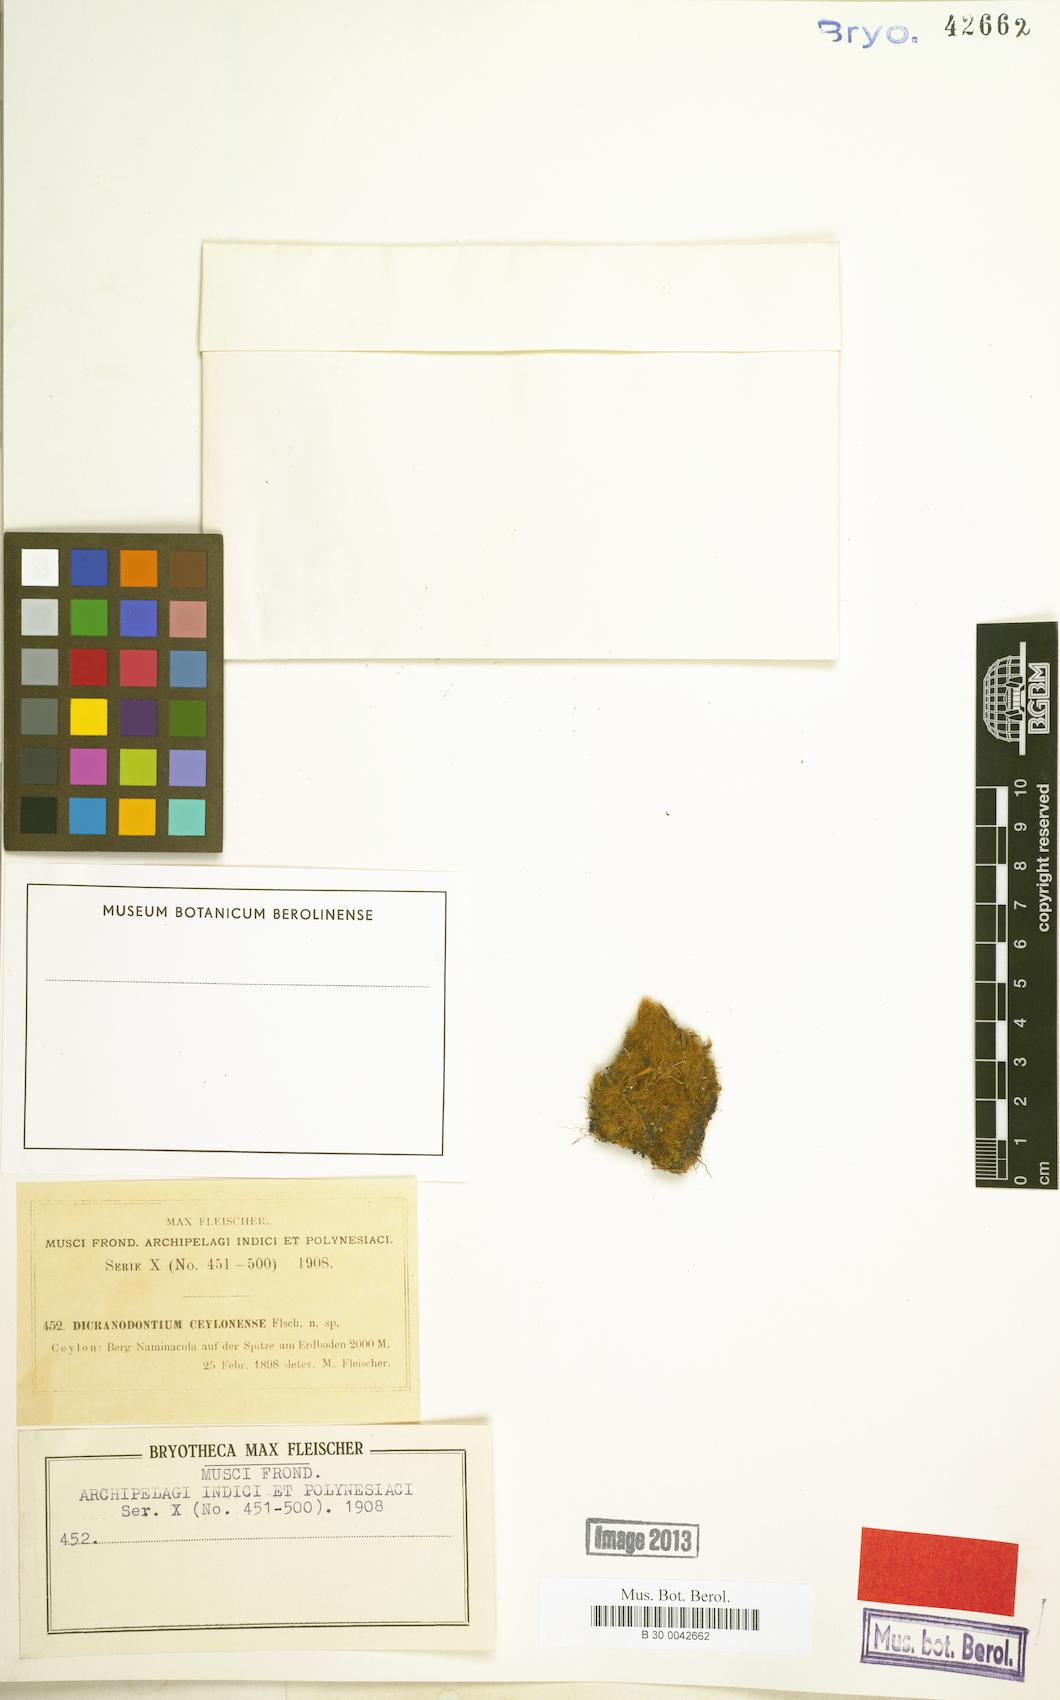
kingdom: Plantae
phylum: Bryophyta
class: Bryopsida
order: Dicranales
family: Leucobryaceae
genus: Dicranodontium
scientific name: Dicranodontium denudatum
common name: Beaked bow moss
